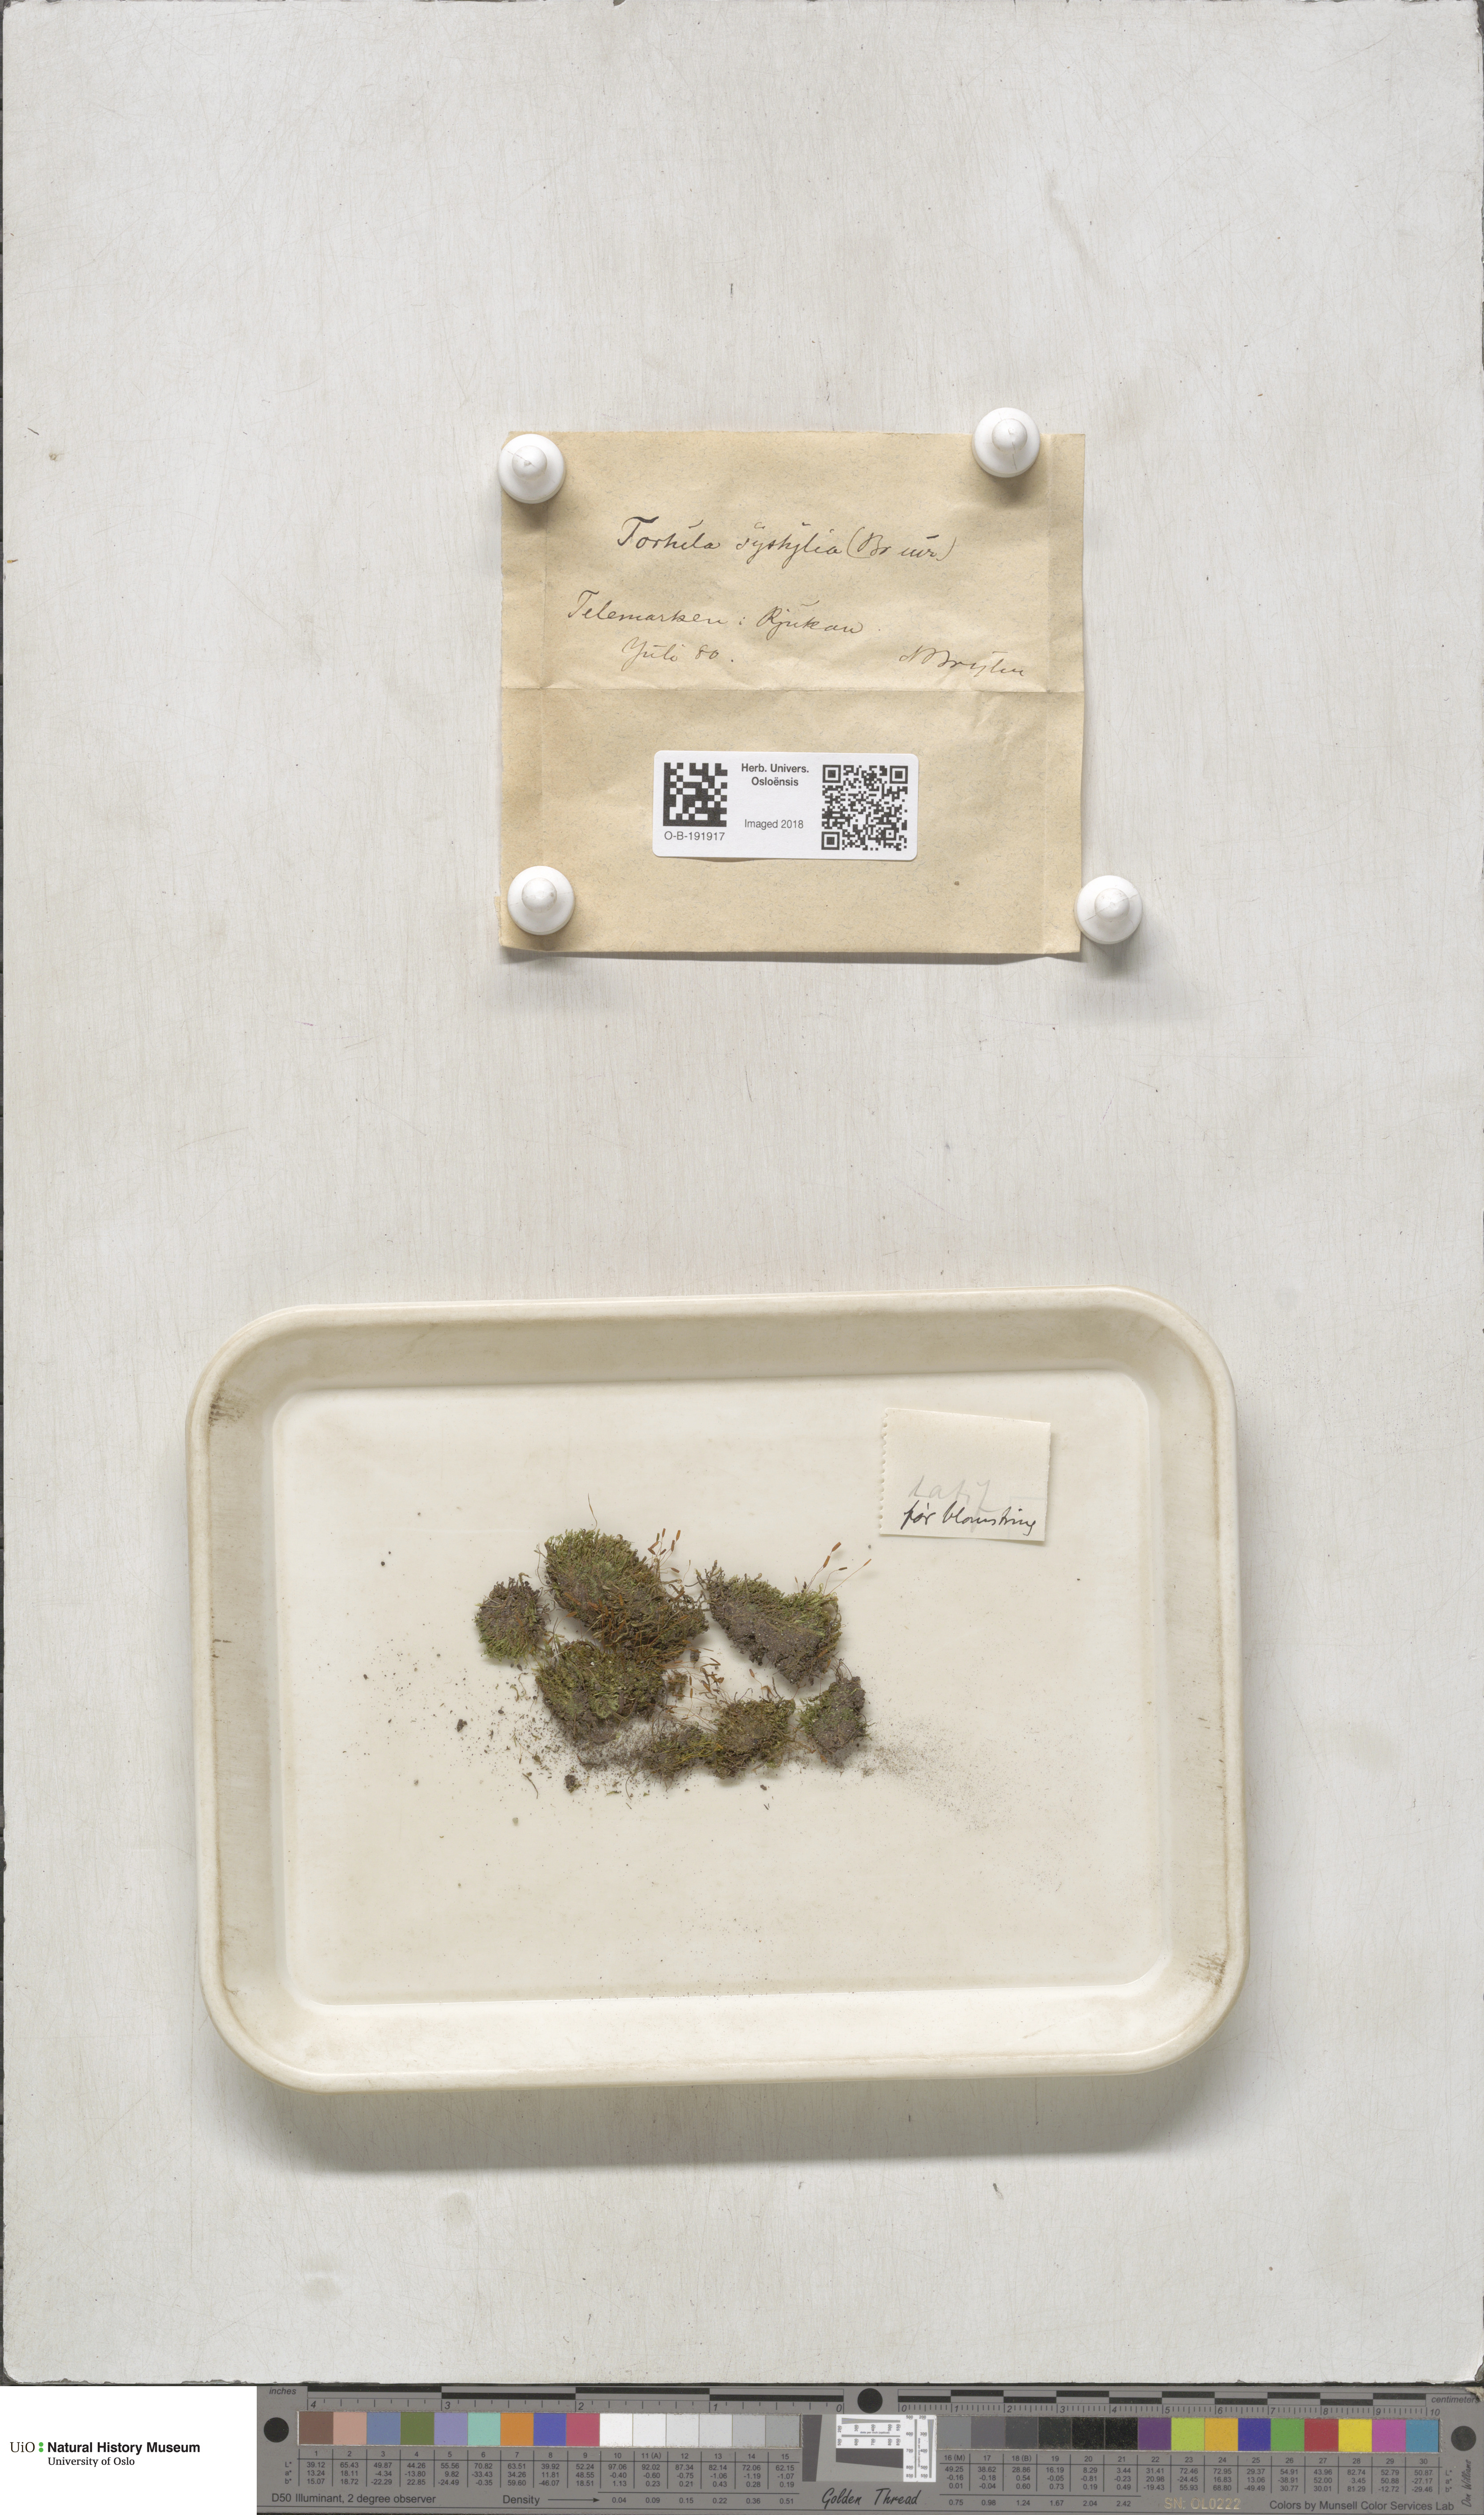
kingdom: Plantae
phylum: Bryophyta
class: Bryopsida
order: Pottiales
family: Pottiaceae
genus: Tortula
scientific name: Tortula hoppeana
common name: Hoppe's screw moss
